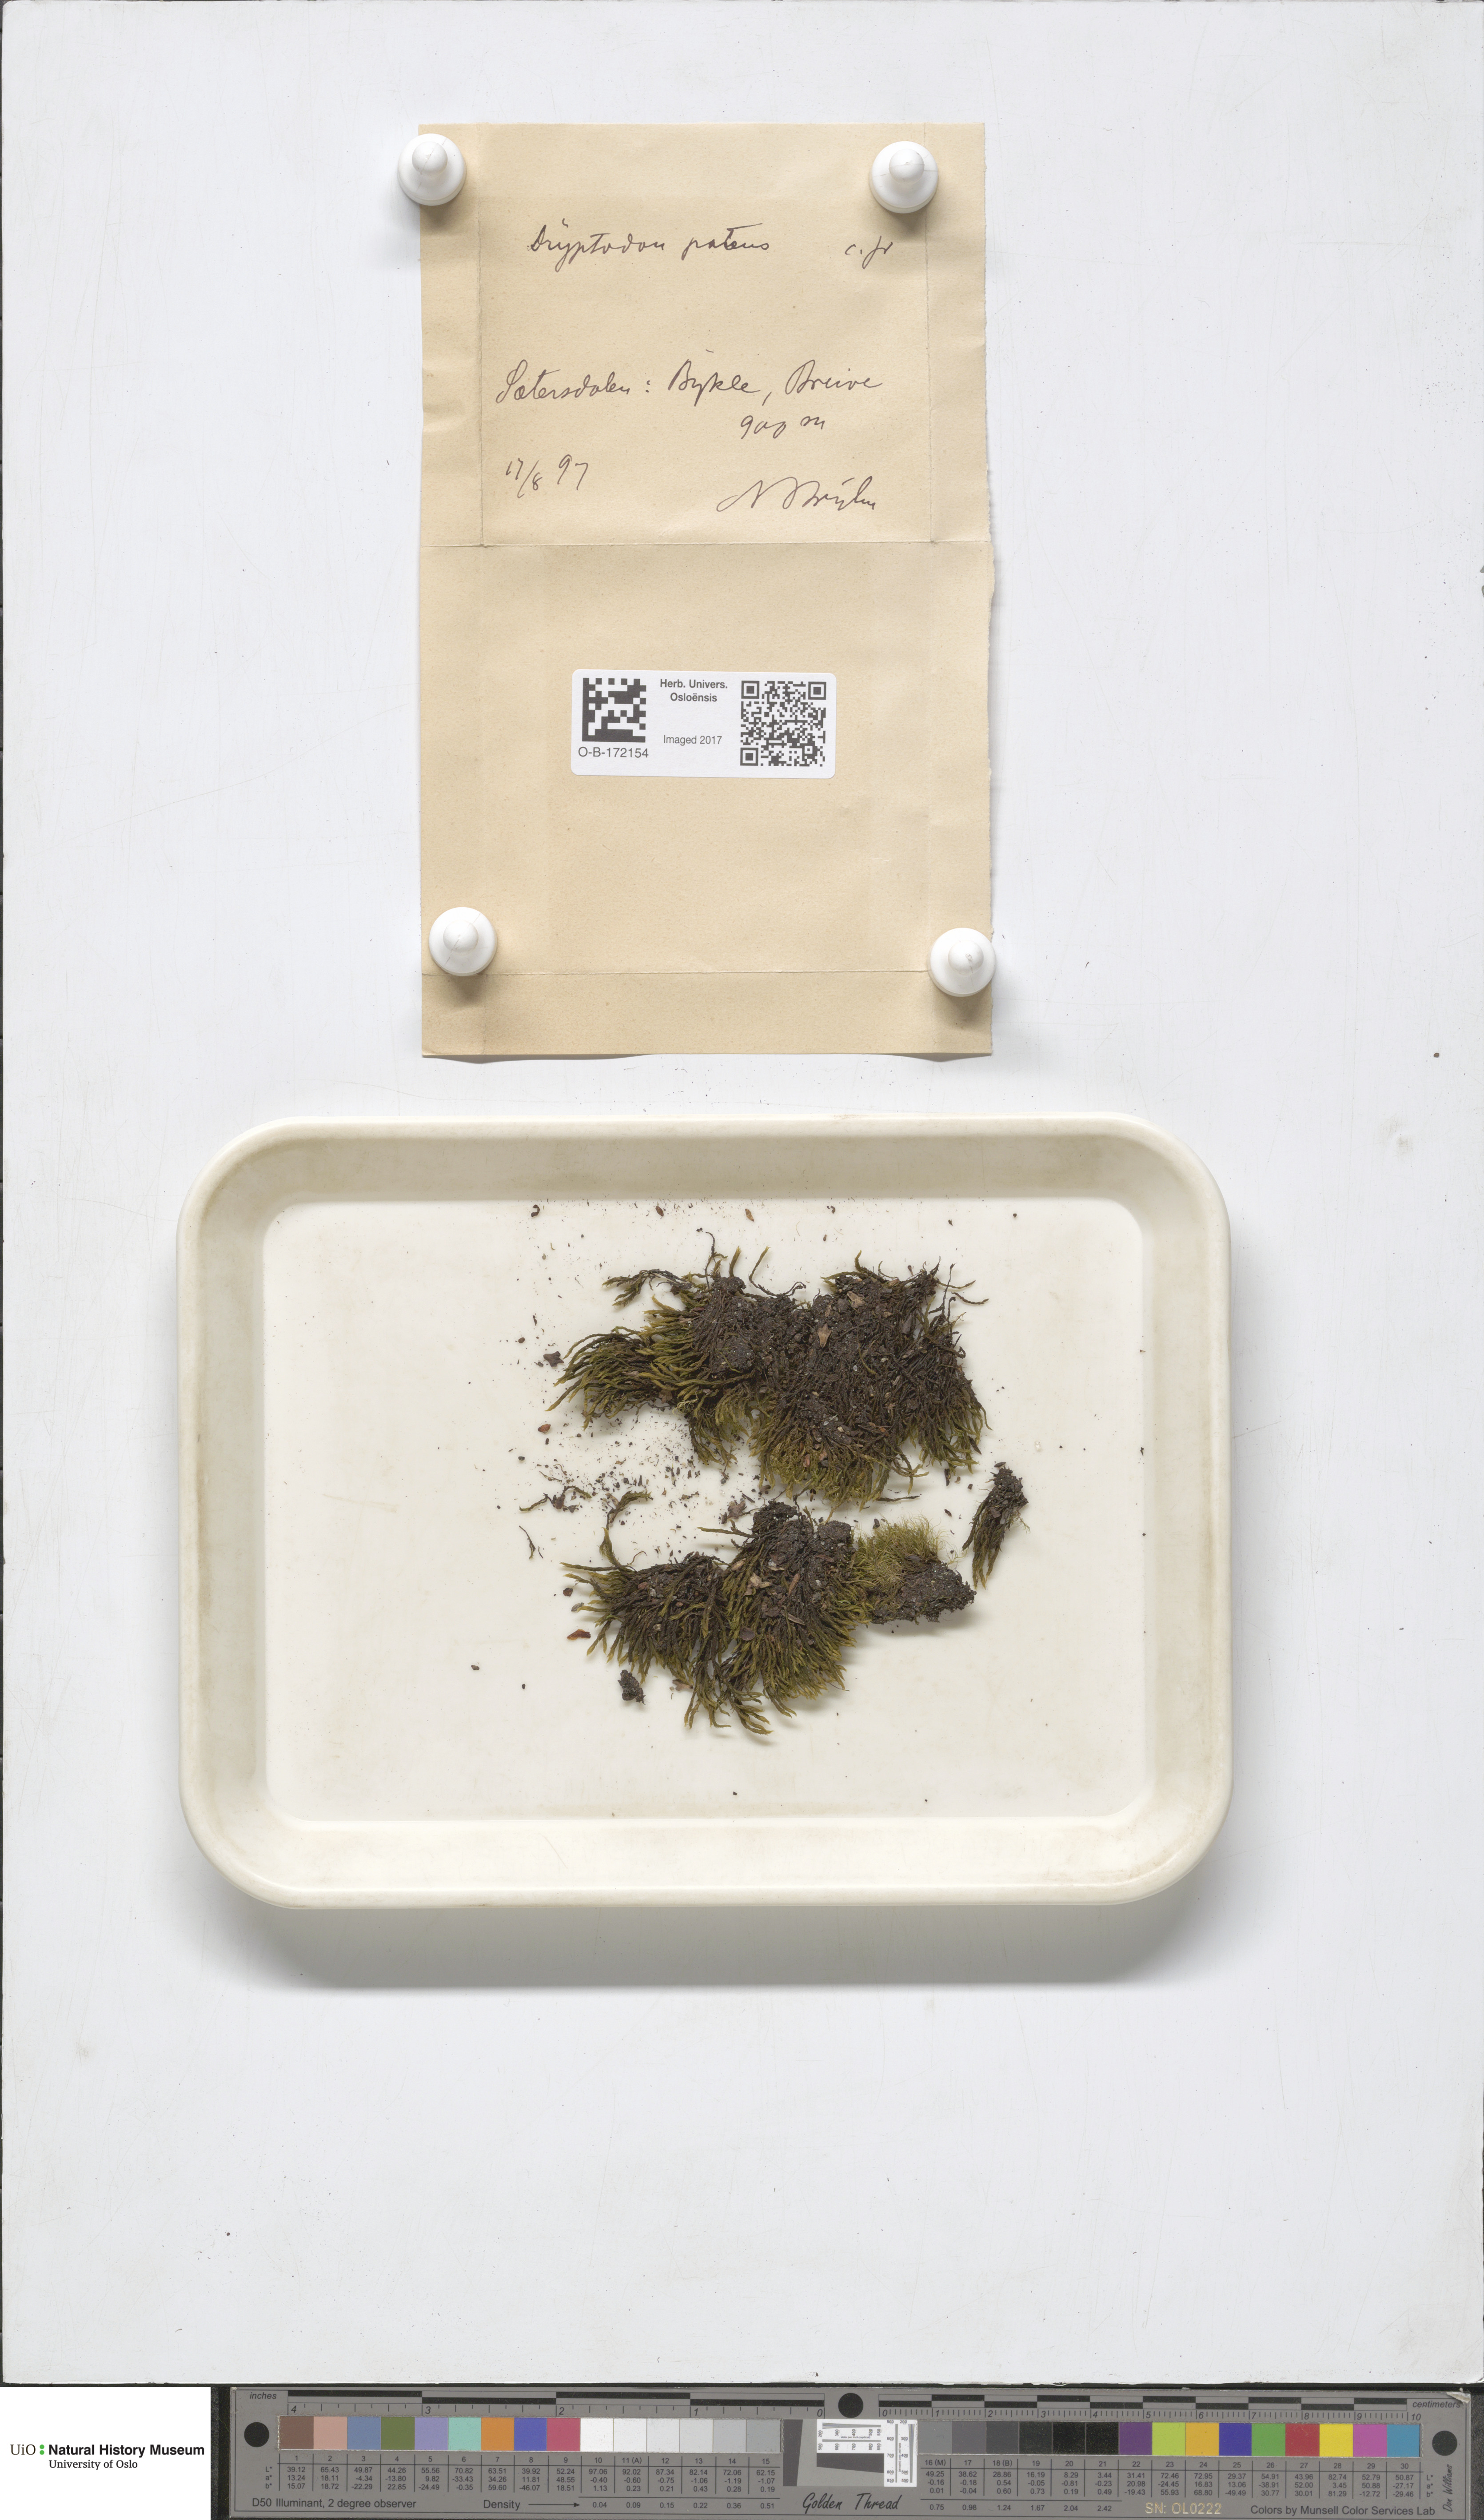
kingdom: Plantae
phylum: Bryophyta
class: Bryopsida
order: Grimmiales
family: Grimmiaceae
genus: Grimmia
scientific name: Grimmia ramondii
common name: Spreading-leaved grimmia
